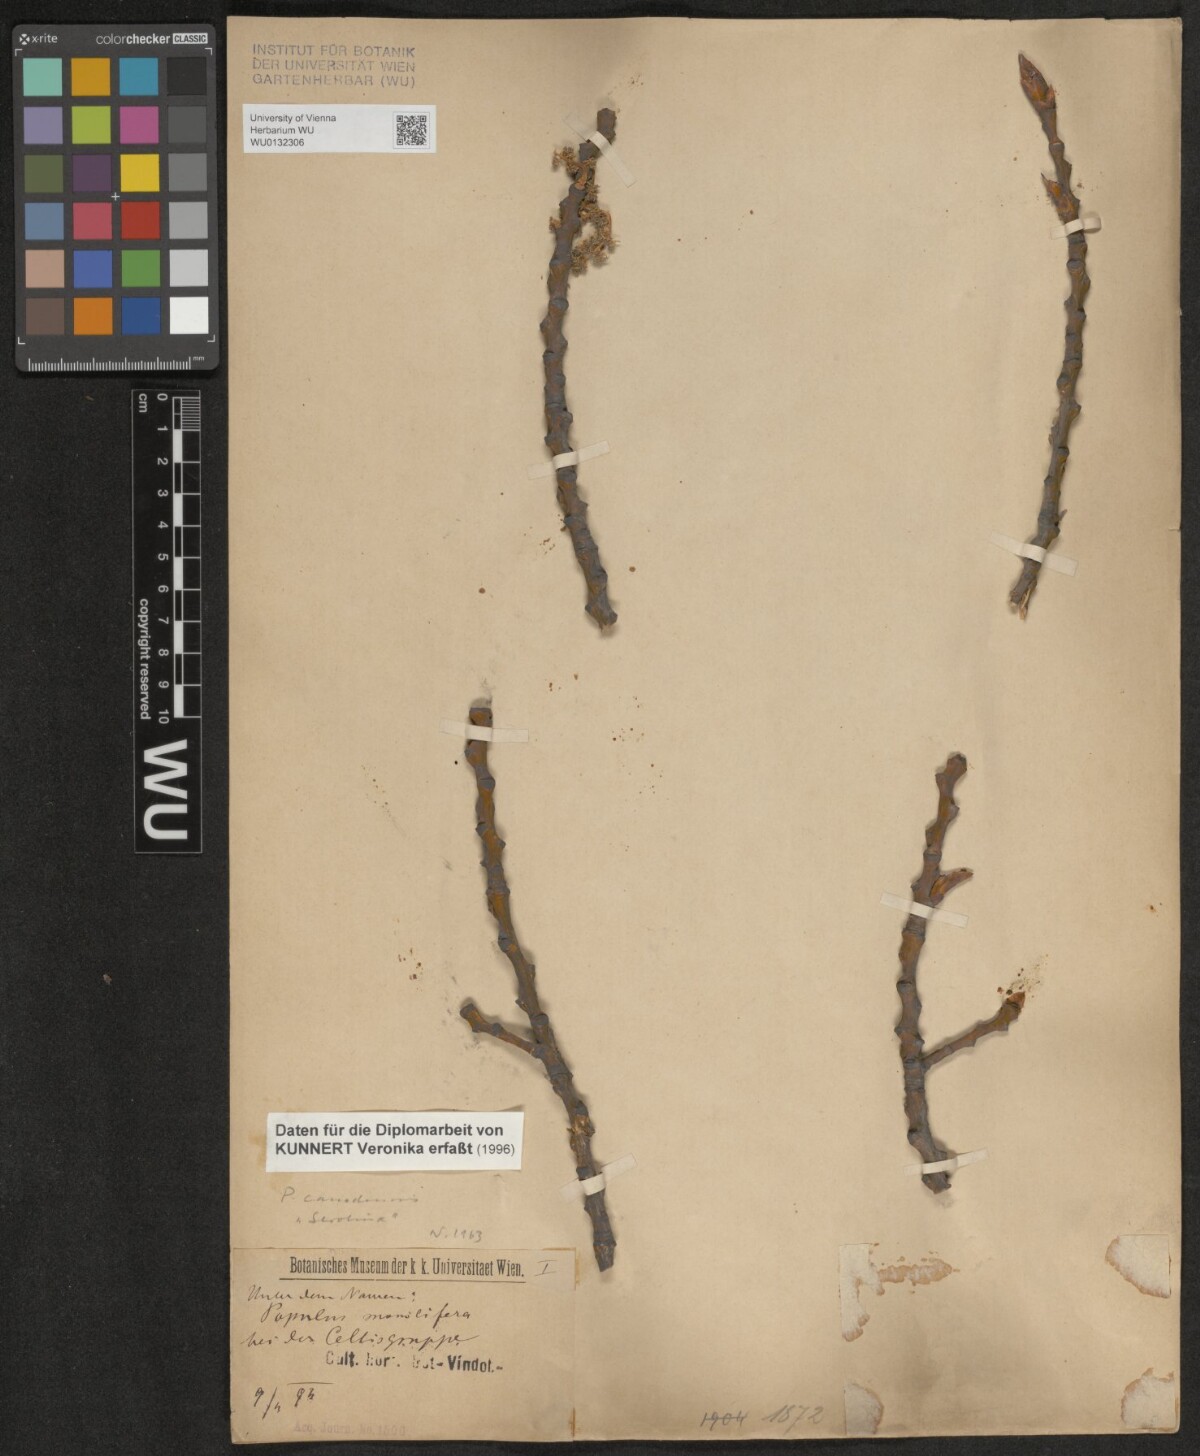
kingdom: Plantae
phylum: Tracheophyta
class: Magnoliopsida
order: Malpighiales
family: Salicaceae
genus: Populus
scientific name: Populus canadensis
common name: Carolina poplar
